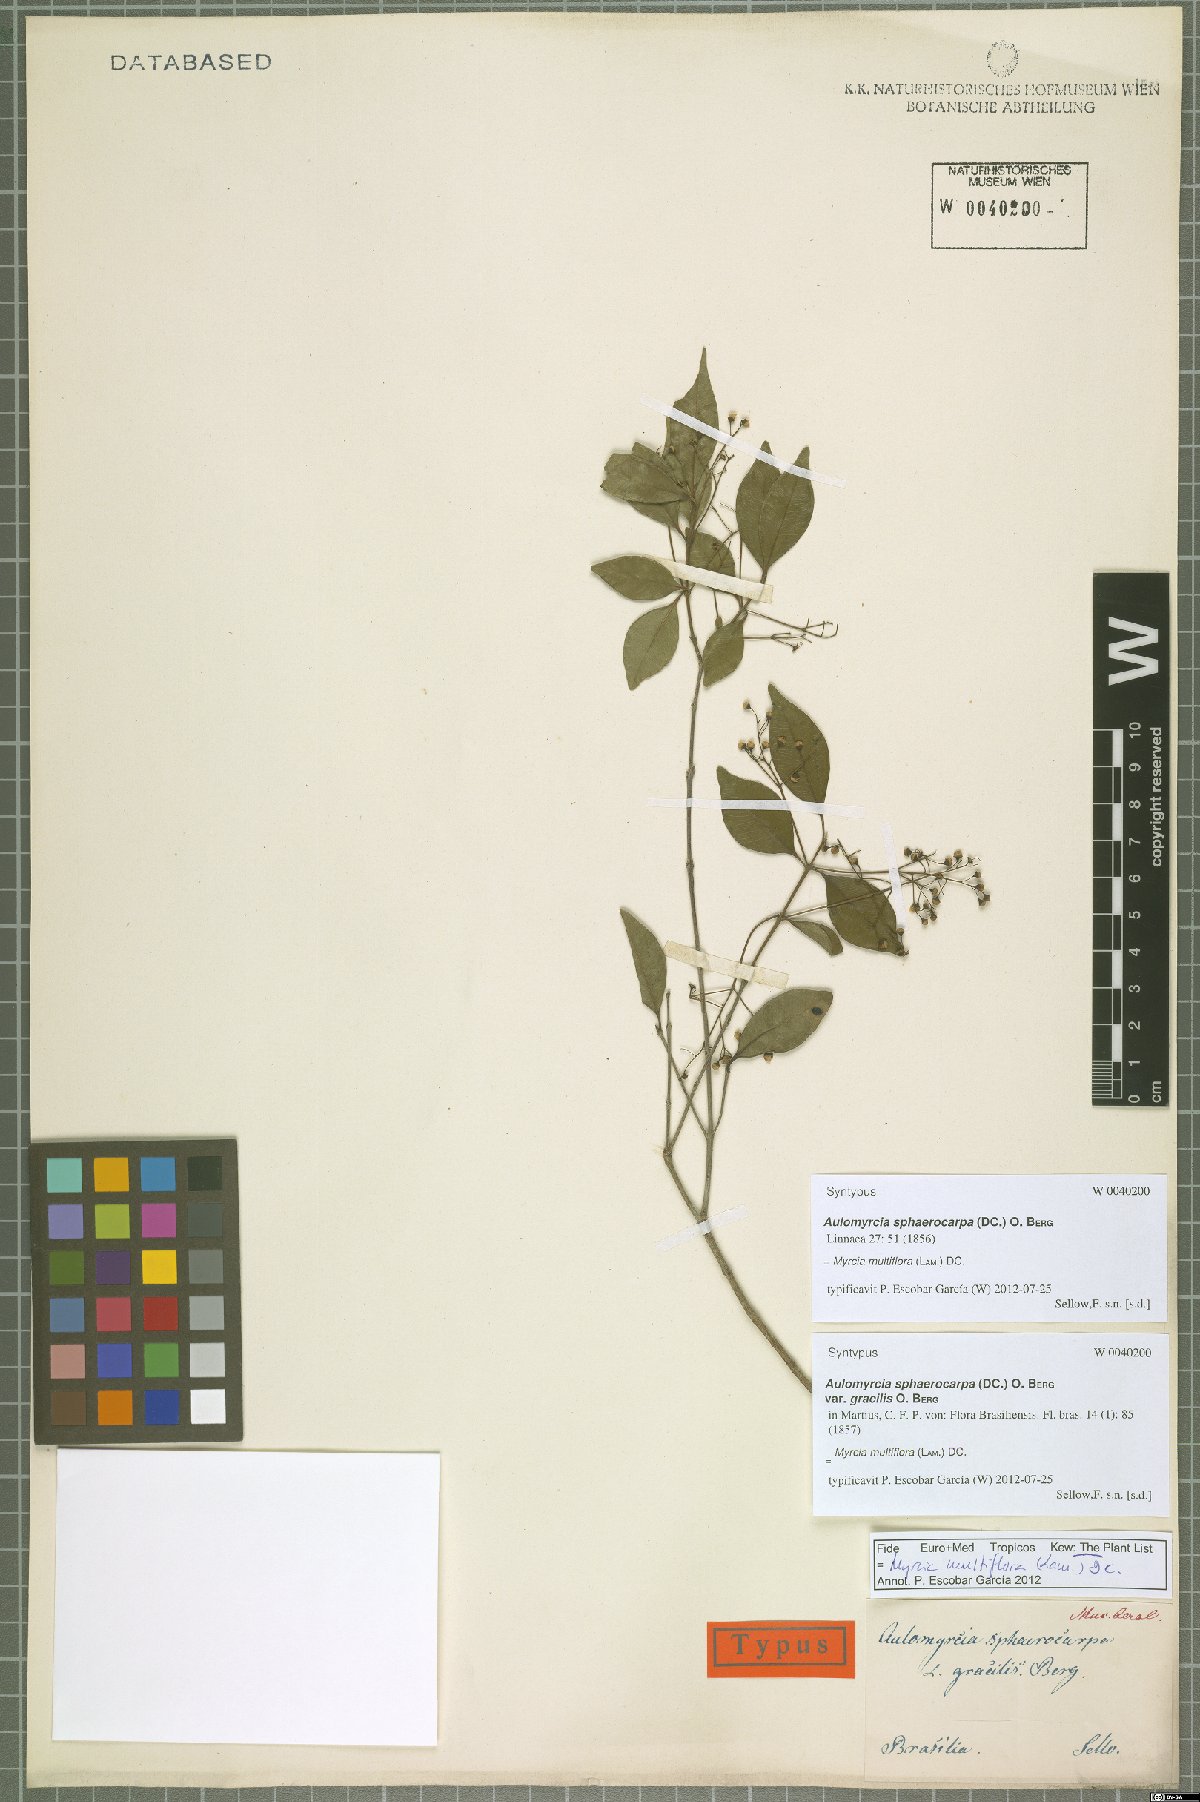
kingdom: Plantae
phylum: Tracheophyta
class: Magnoliopsida
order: Myrtales
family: Myrtaceae
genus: Myrcia
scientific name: Myrcia multiflora
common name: Pedra hume
